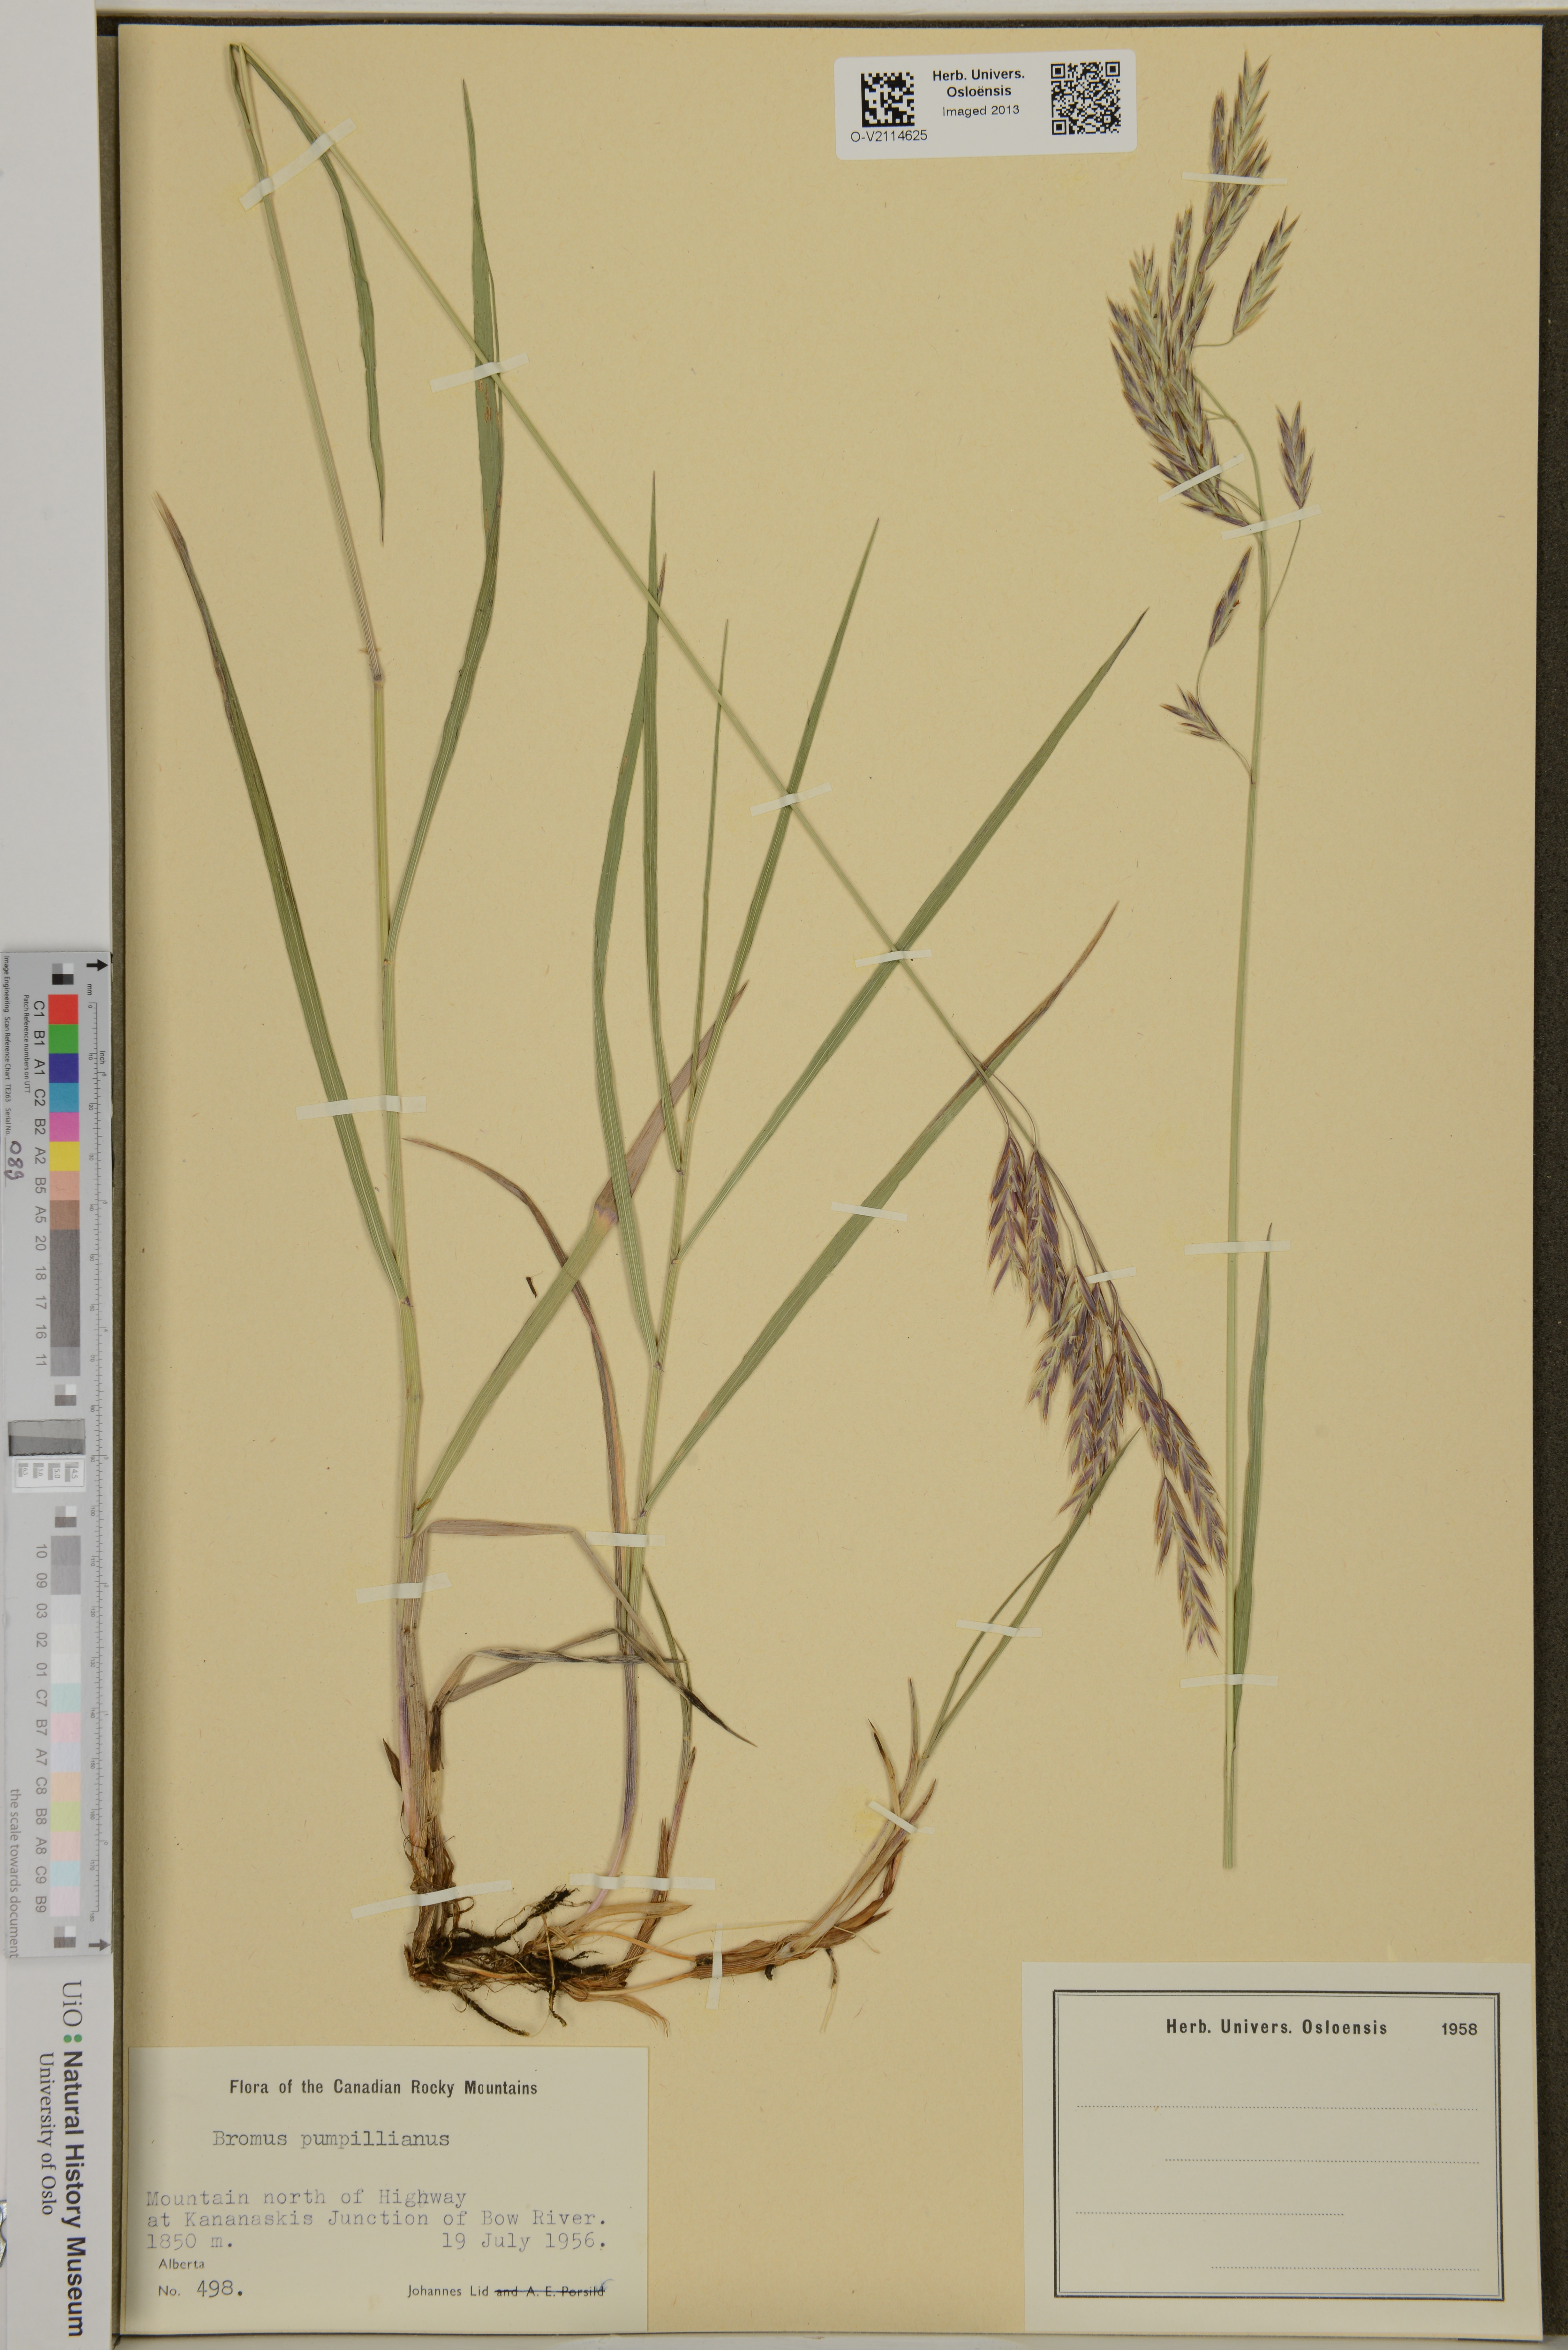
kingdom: Plantae
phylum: Tracheophyta
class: Liliopsida
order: Poales
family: Poaceae
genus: Bromus
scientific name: Bromus pumpellianus
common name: Pumpelly's brome
